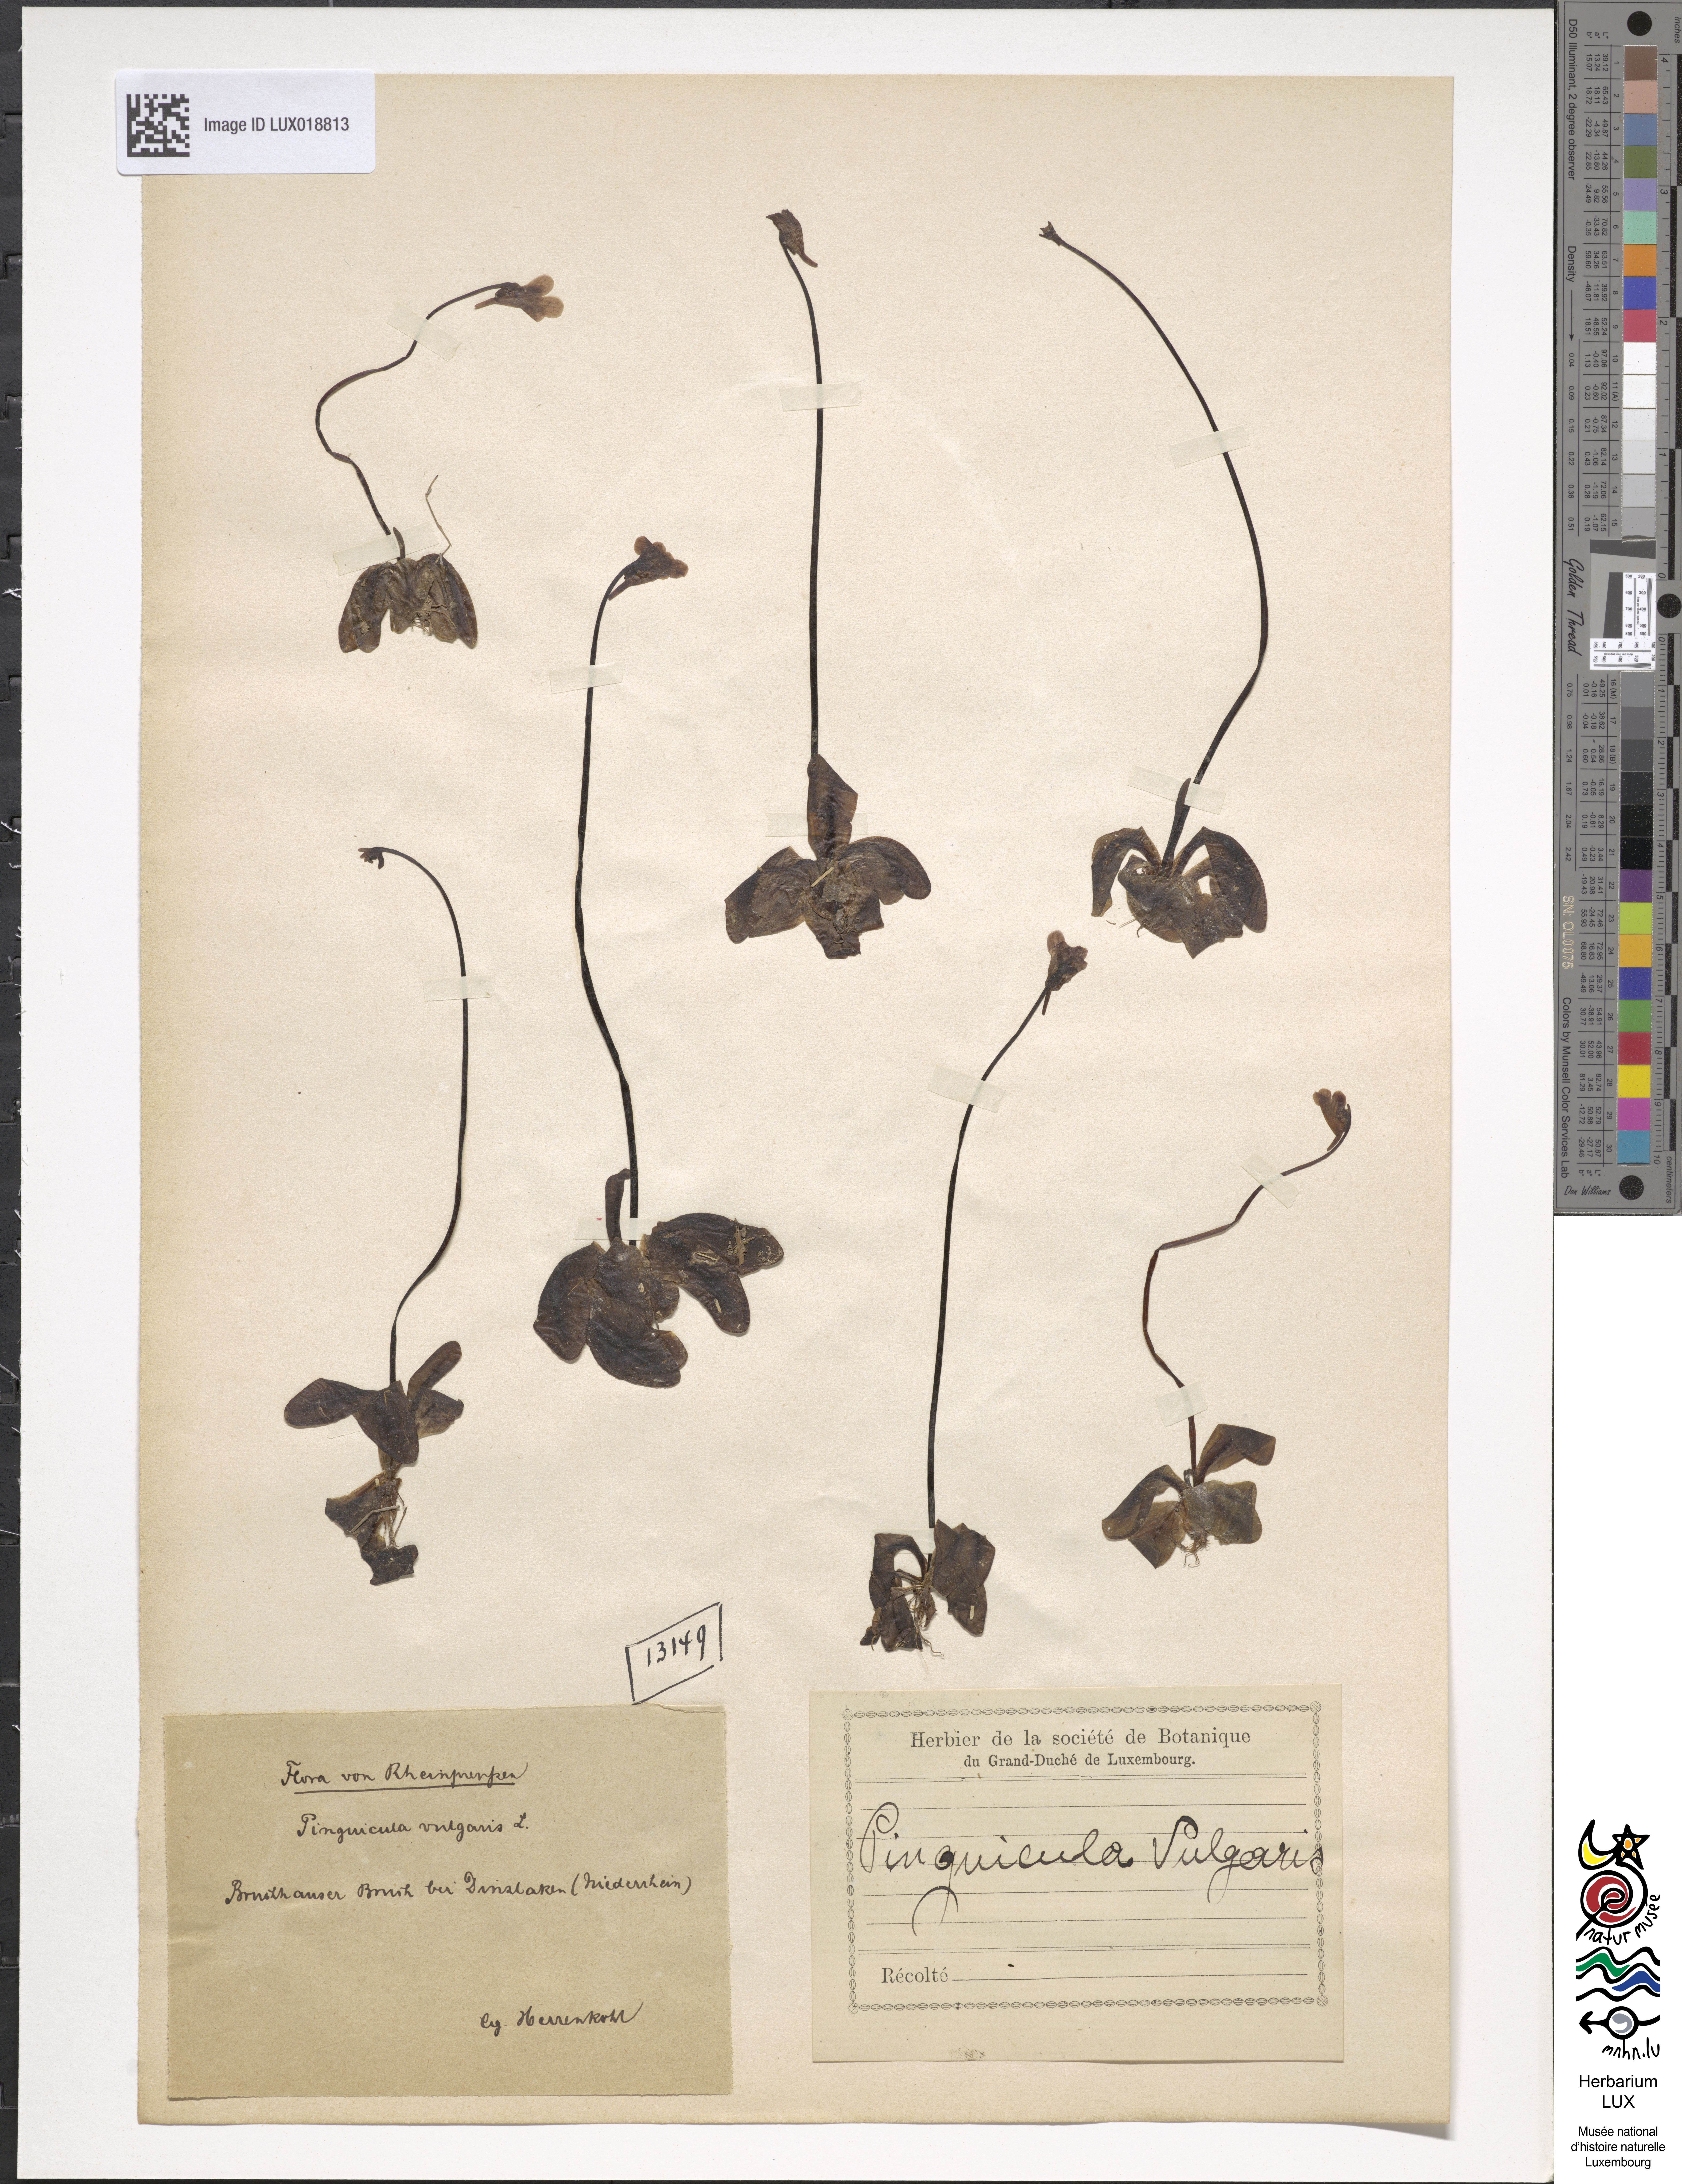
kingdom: Plantae
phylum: Tracheophyta
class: Magnoliopsida
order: Lamiales
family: Lentibulariaceae
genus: Pinguicula
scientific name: Pinguicula vulgaris
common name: Common butterwort
